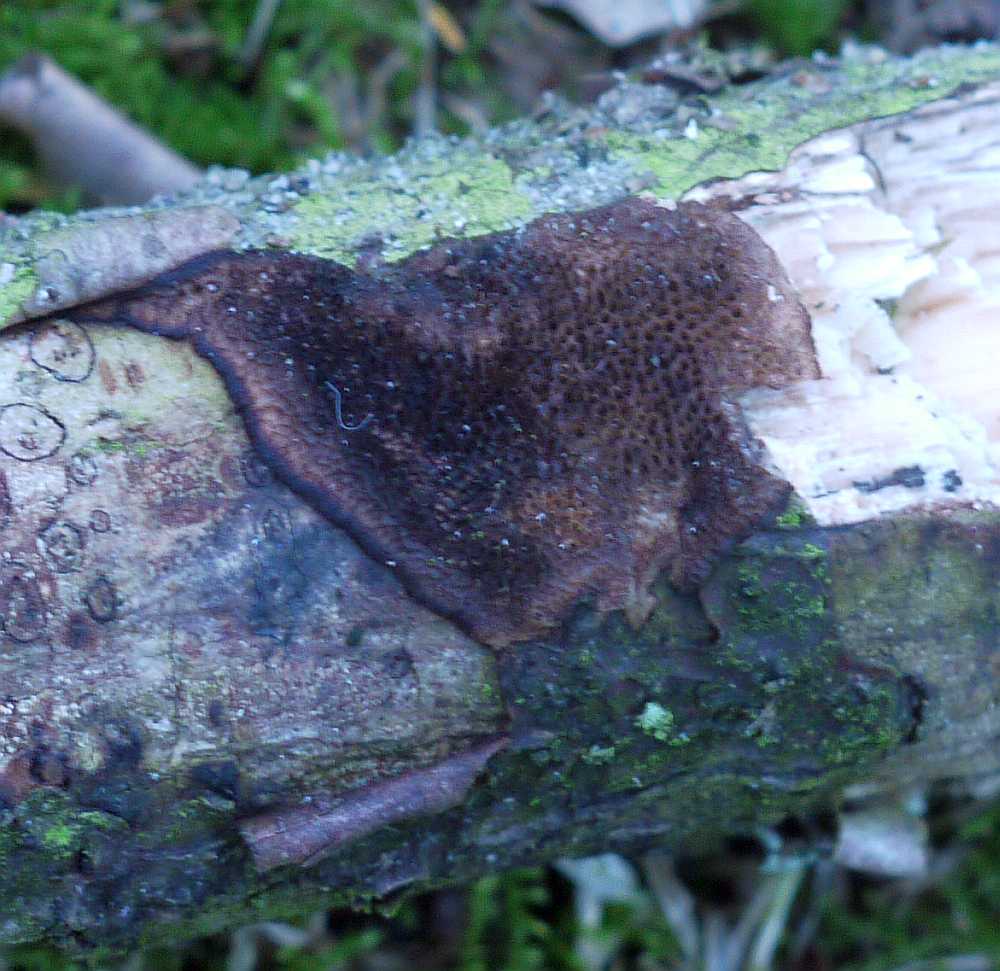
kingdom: Fungi
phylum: Basidiomycota
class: Agaricomycetes
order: Polyporales
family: Polyporaceae
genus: Szczepkamyces
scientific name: Szczepkamyces campestris
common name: hasselporesvamp
